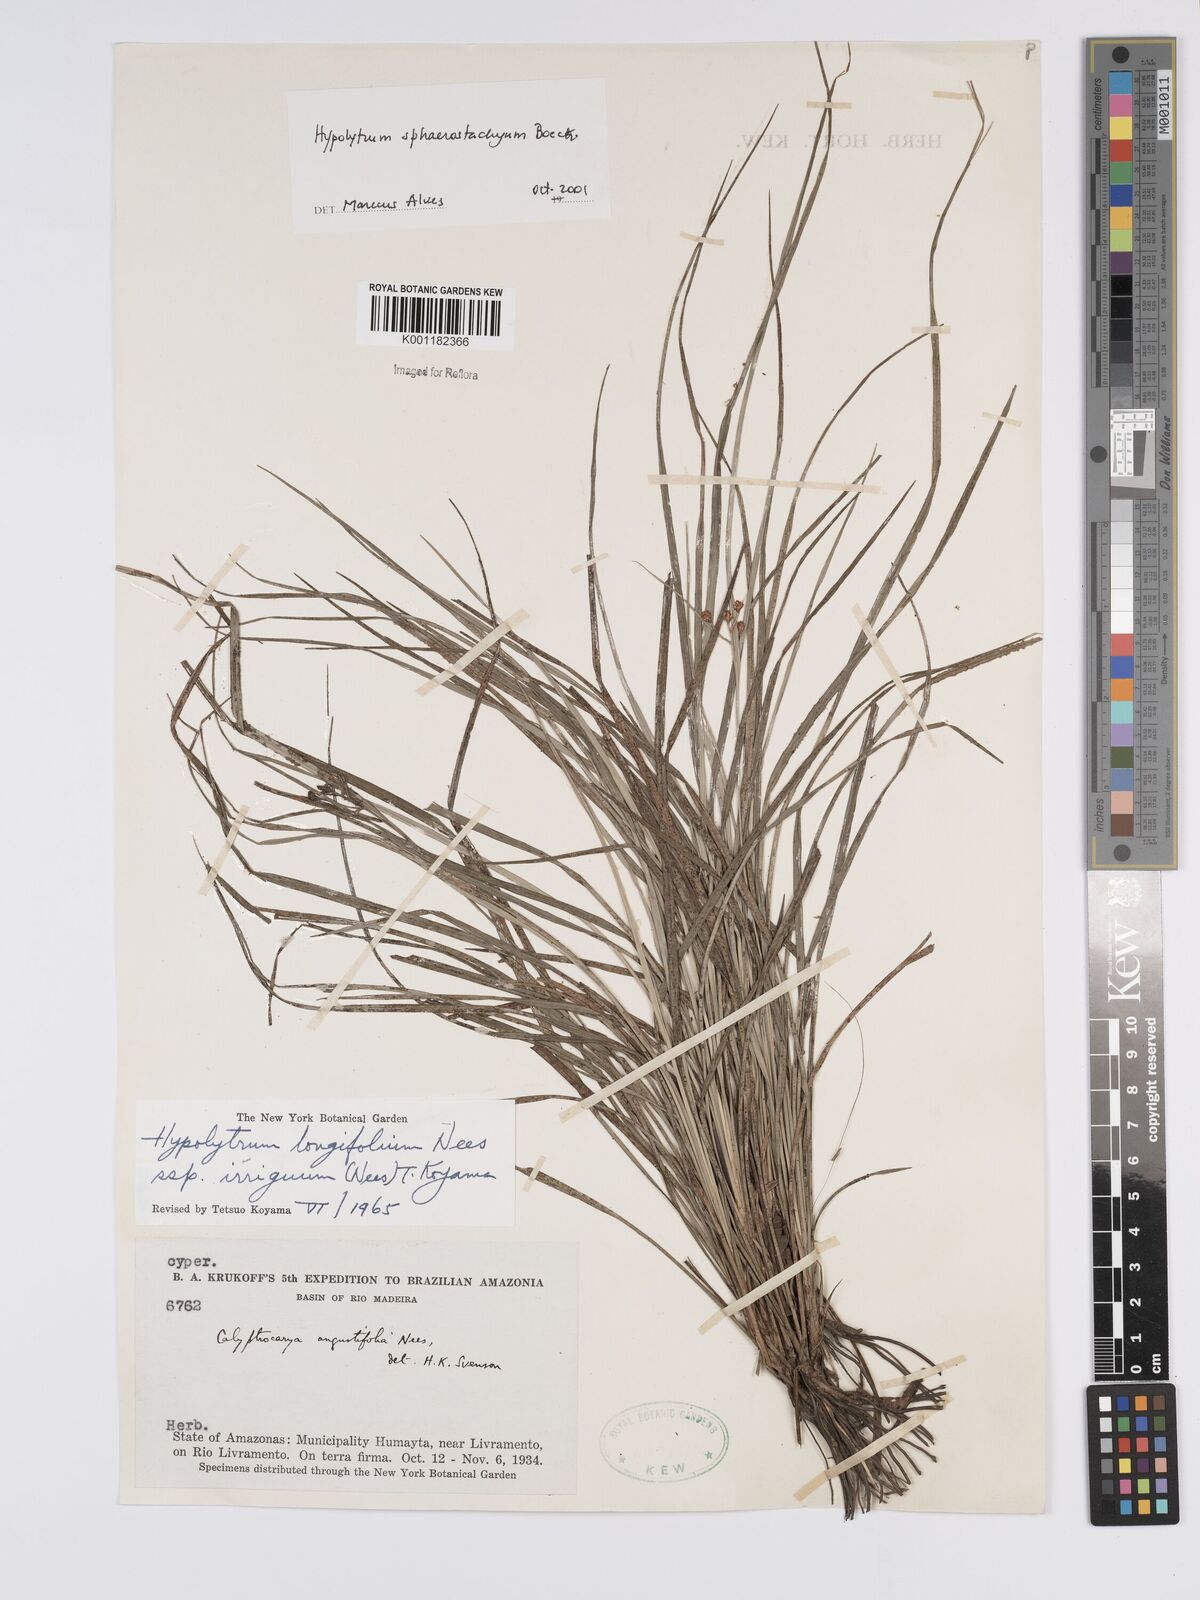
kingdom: Plantae
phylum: Tracheophyta
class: Liliopsida
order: Poales
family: Cyperaceae
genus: Hypolytrum
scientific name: Hypolytrum sphaerostachyum
